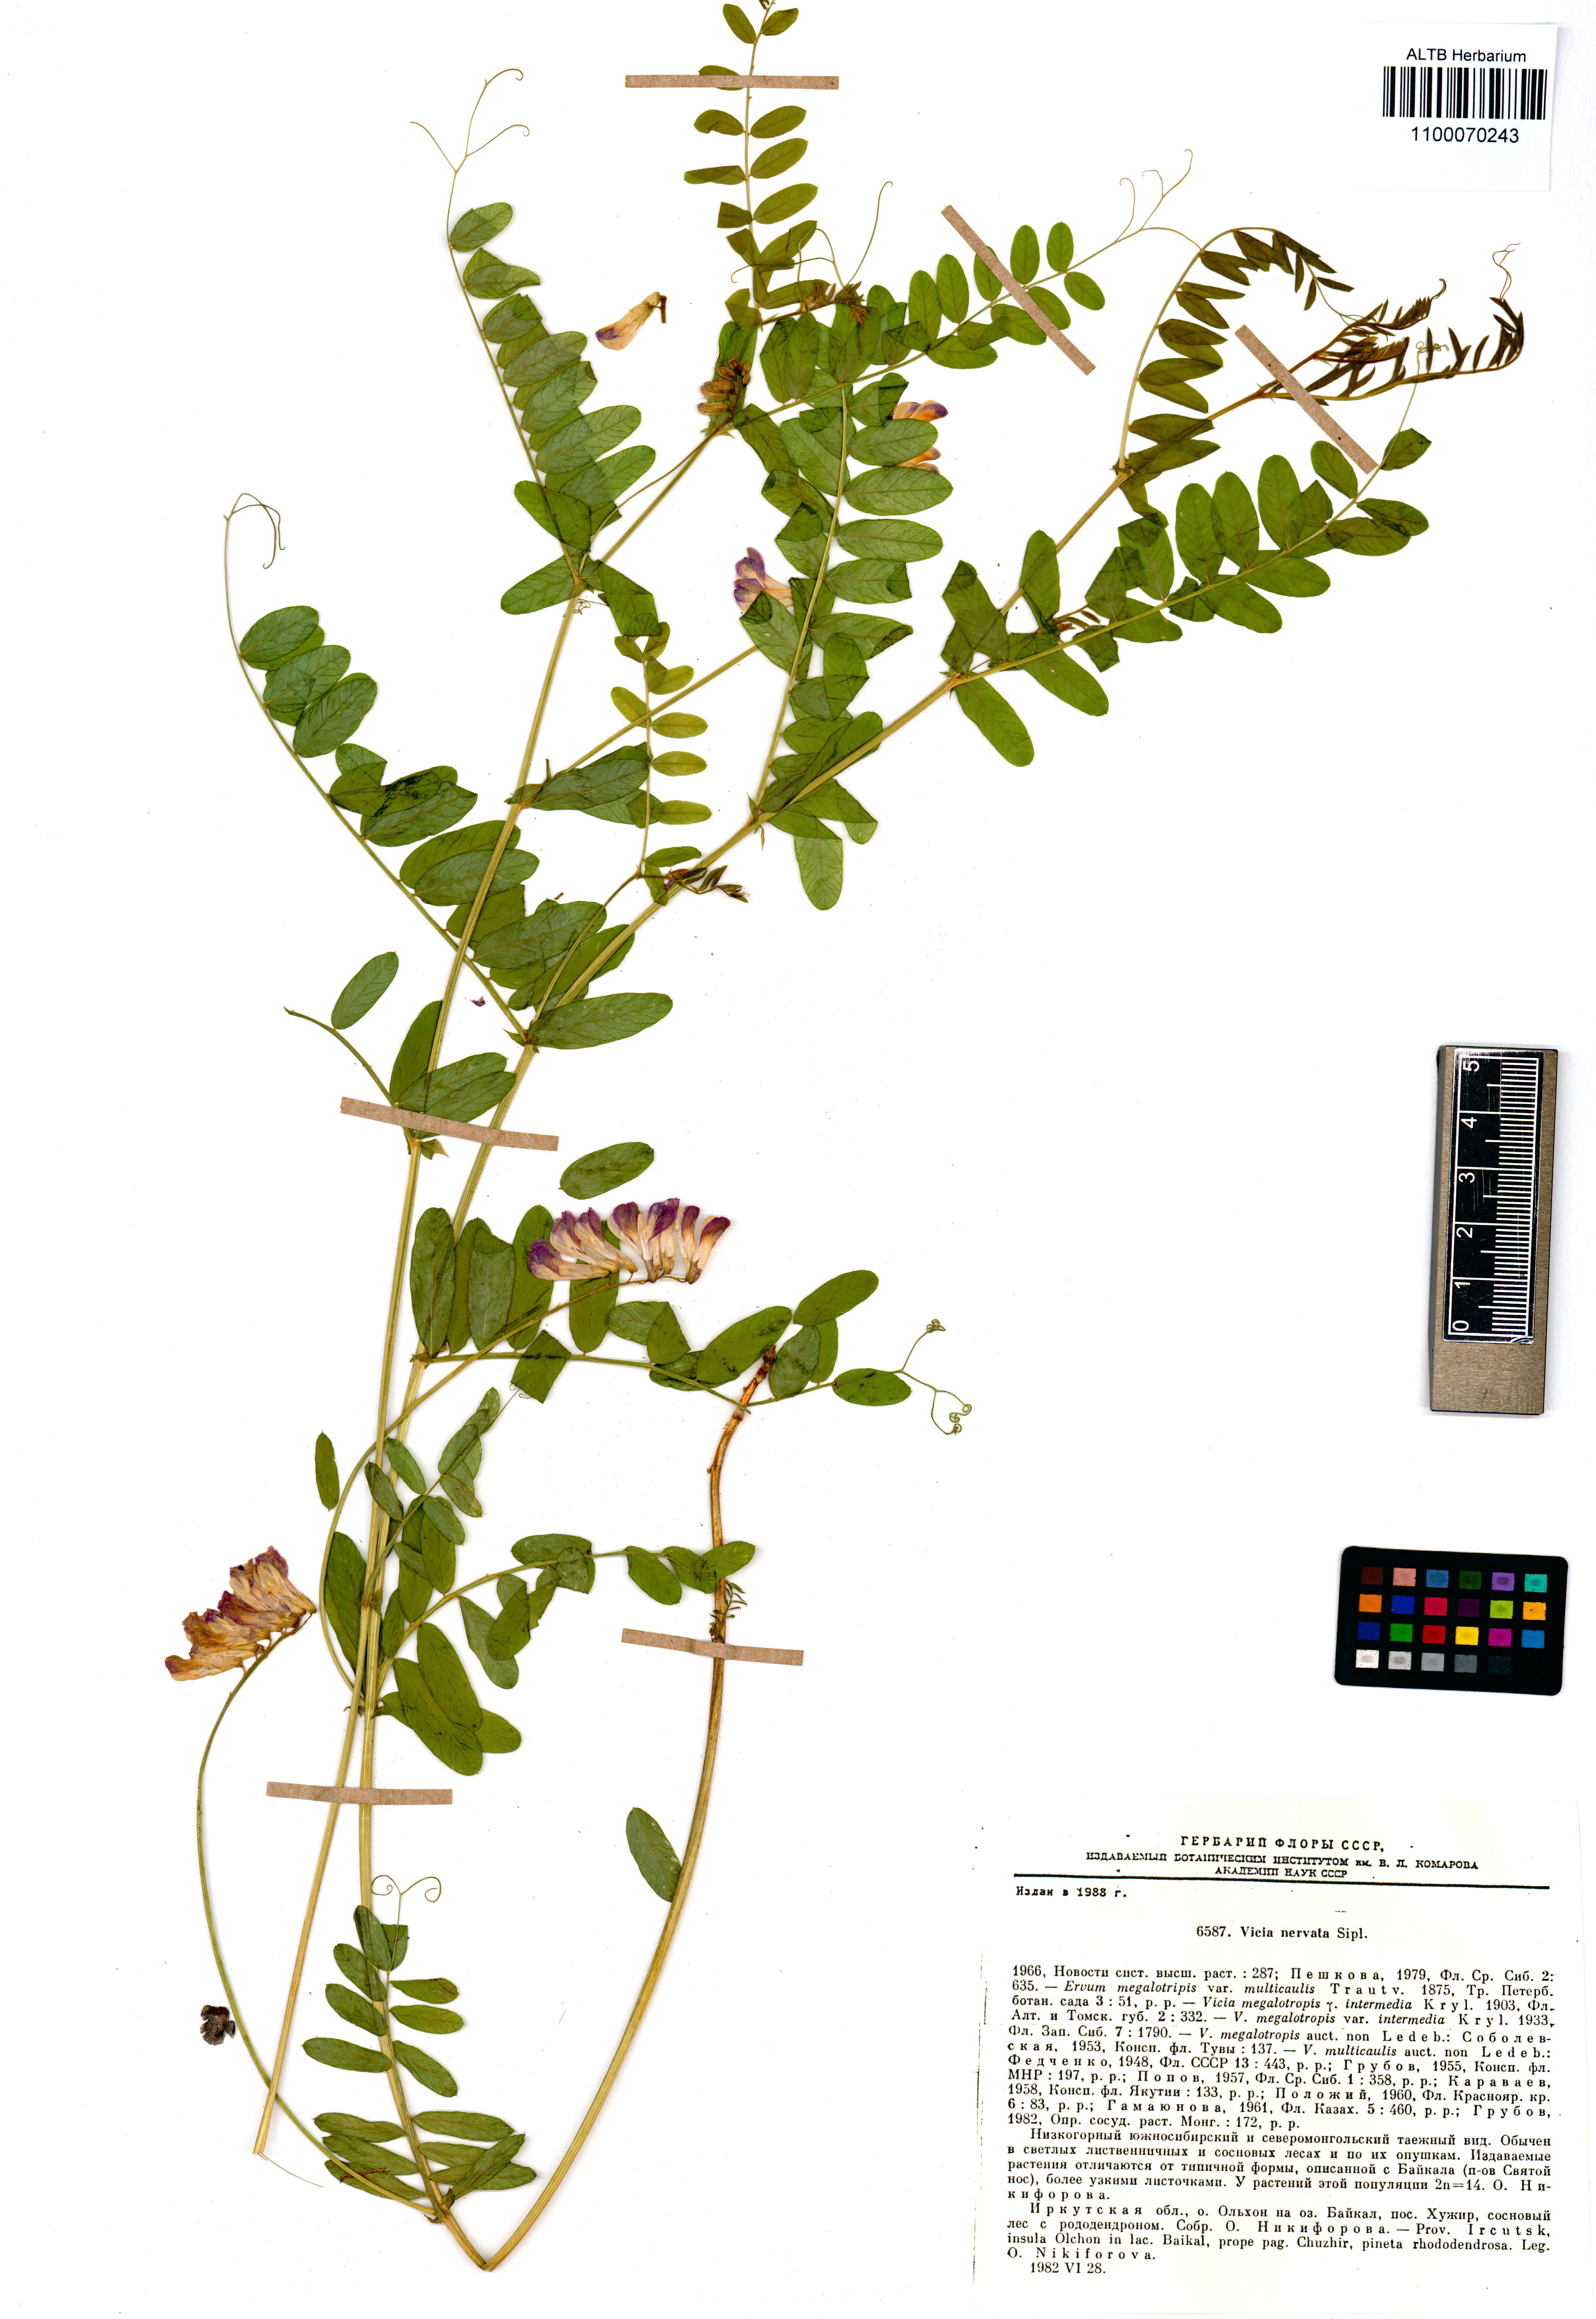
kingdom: Plantae
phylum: Tracheophyta
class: Magnoliopsida
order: Fabales
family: Fabaceae
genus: Vicia
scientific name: Vicia multicaulis
